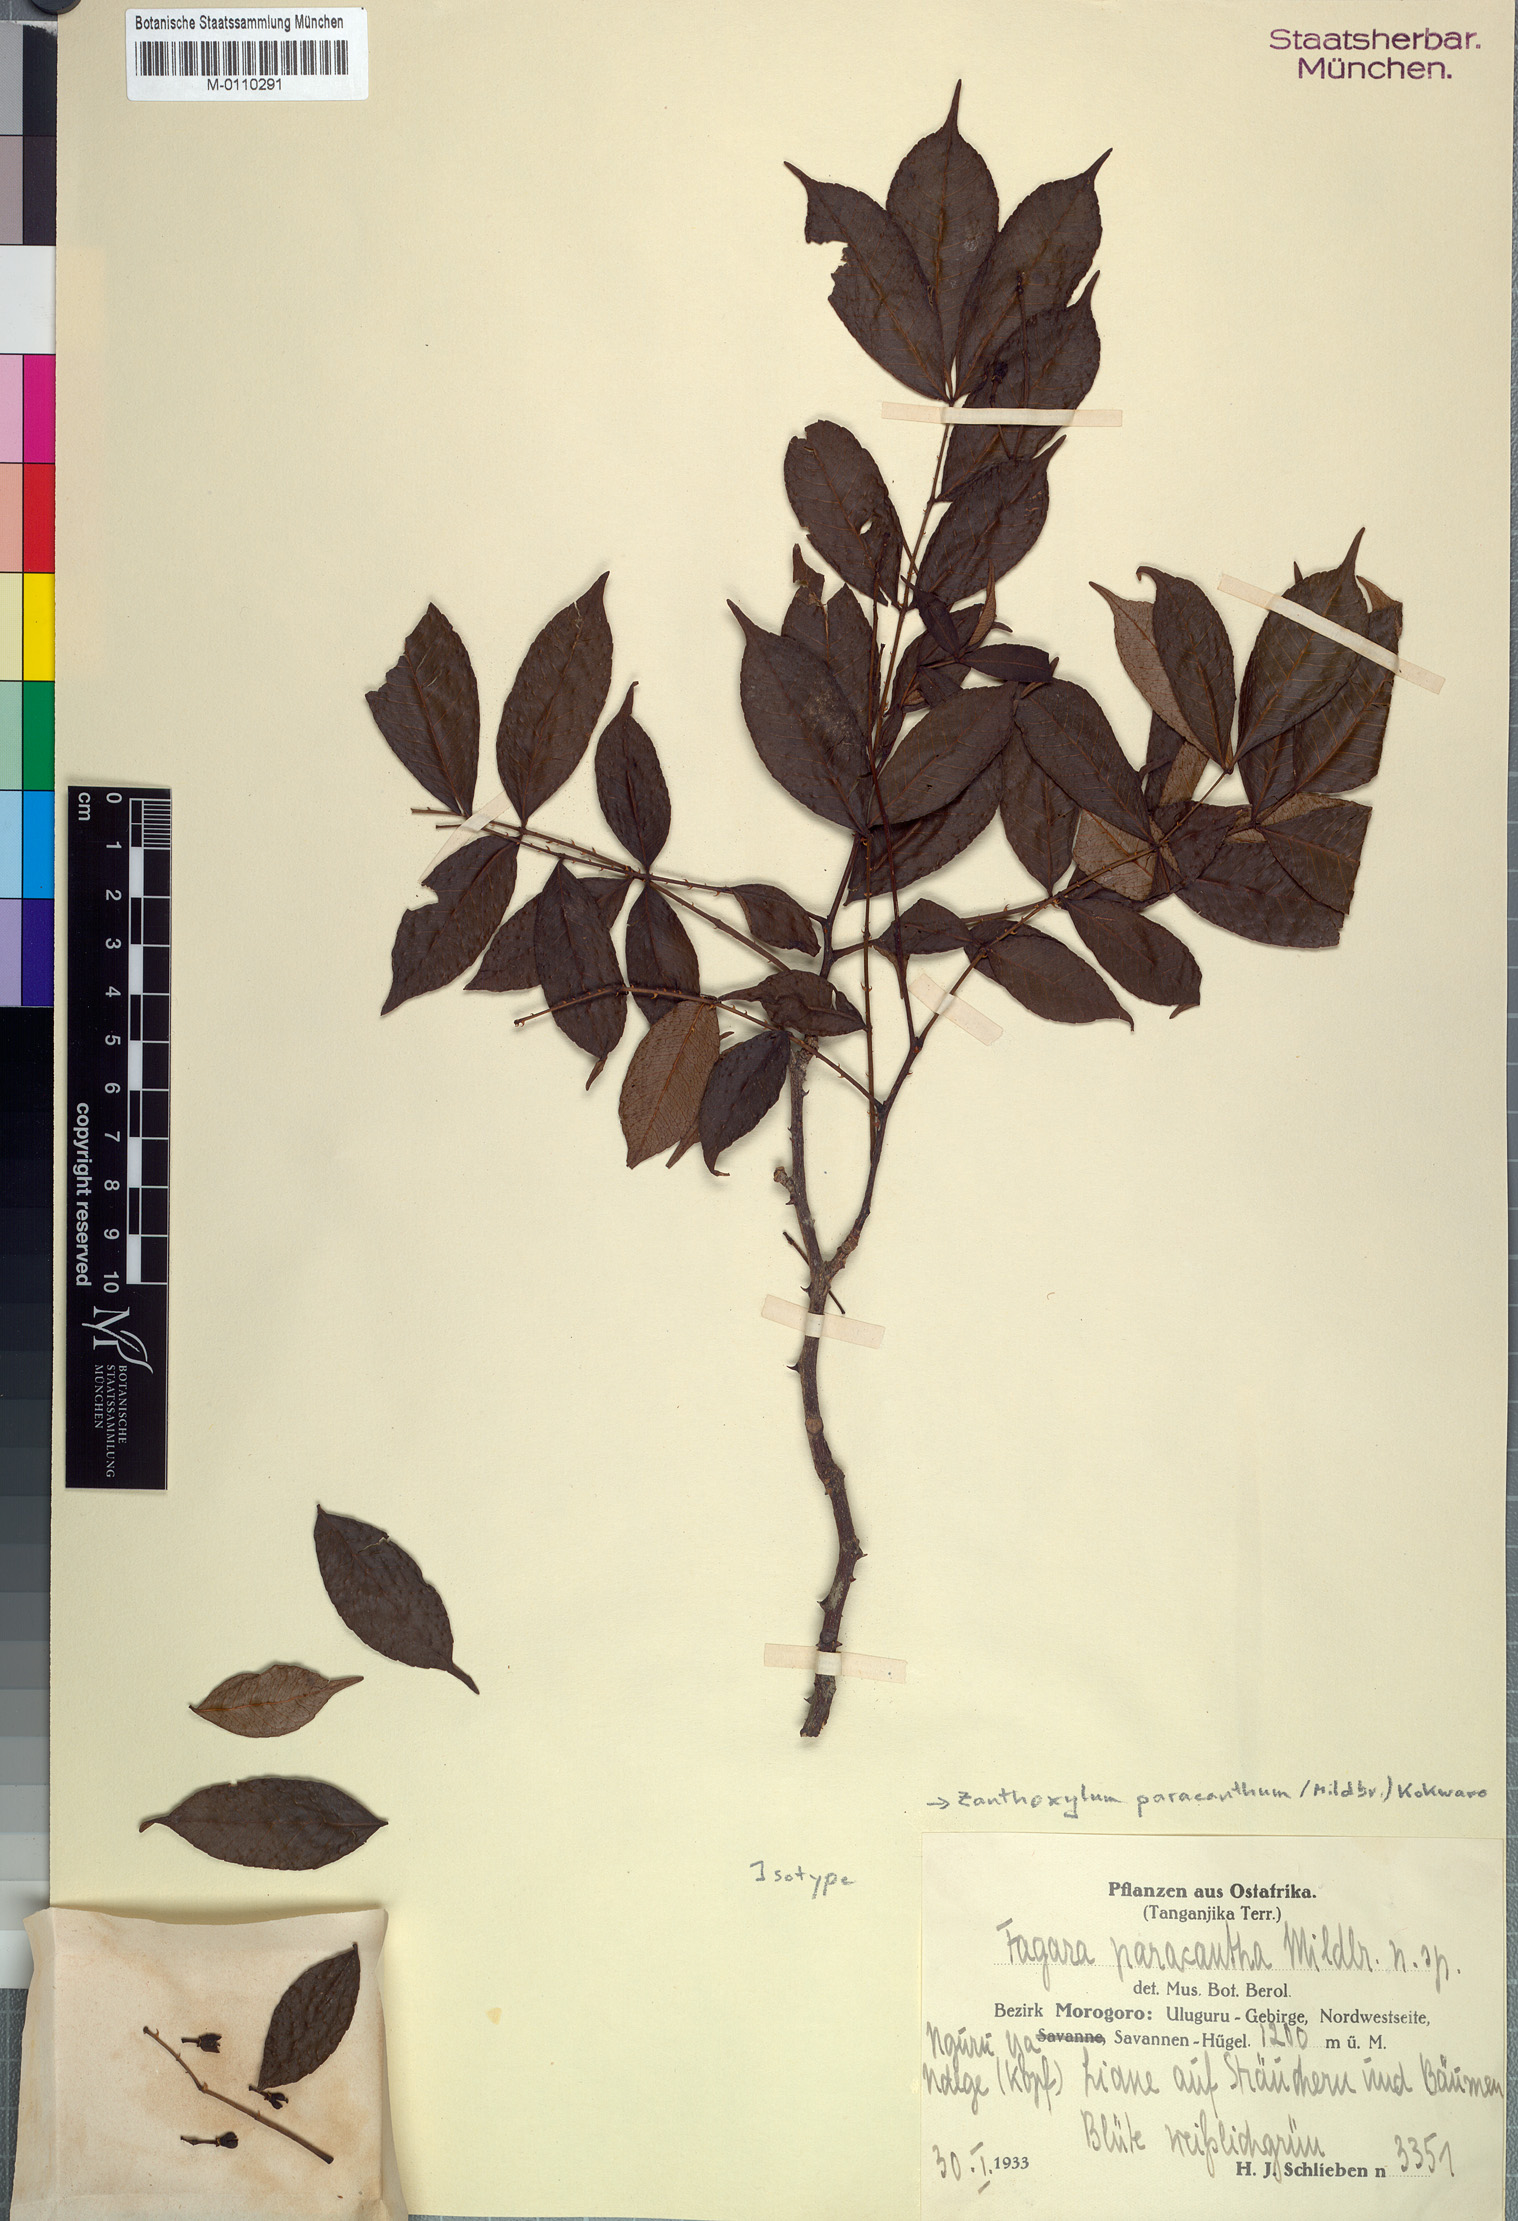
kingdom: Plantae
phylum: Tracheophyta
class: Magnoliopsida
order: Sapindales
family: Rutaceae
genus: Zanthoxylum
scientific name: Zanthoxylum paracanthum
